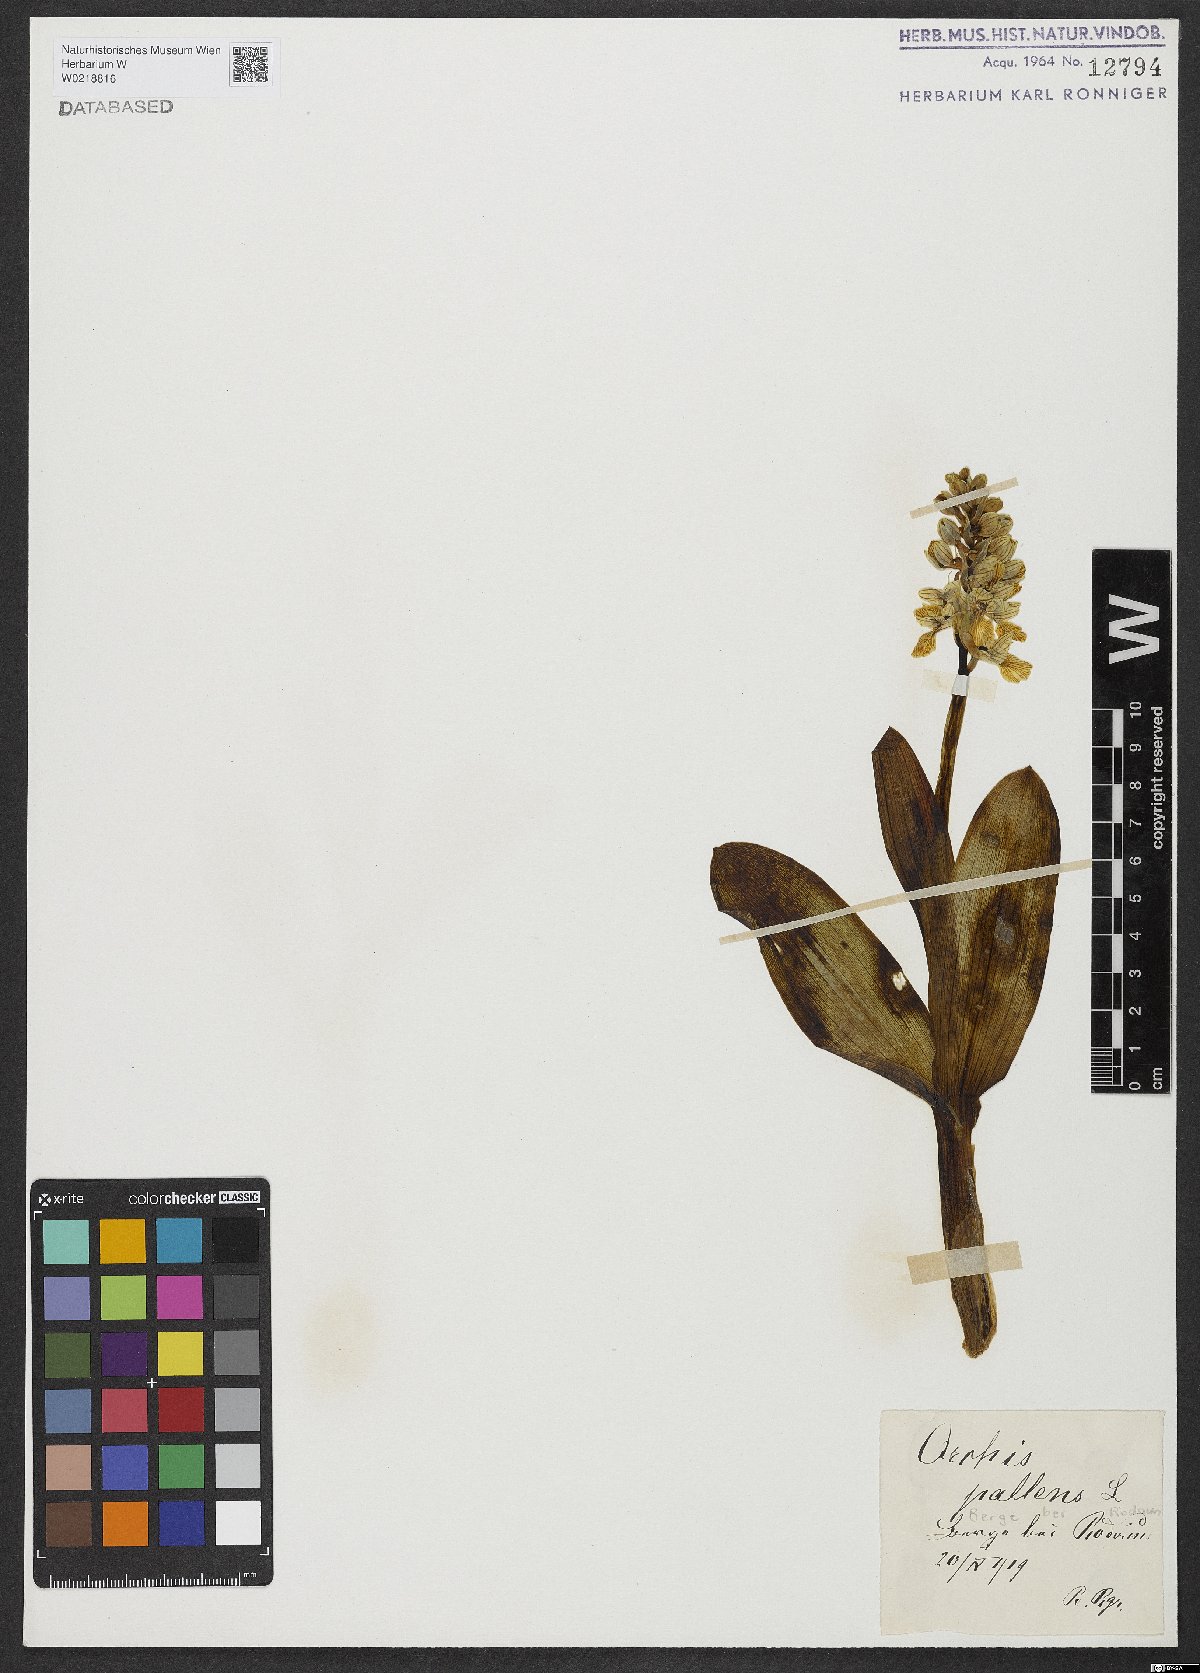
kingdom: Plantae
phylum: Tracheophyta
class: Liliopsida
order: Asparagales
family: Orchidaceae
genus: Orchis
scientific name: Orchis pallens
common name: Pale-flowered orchid
